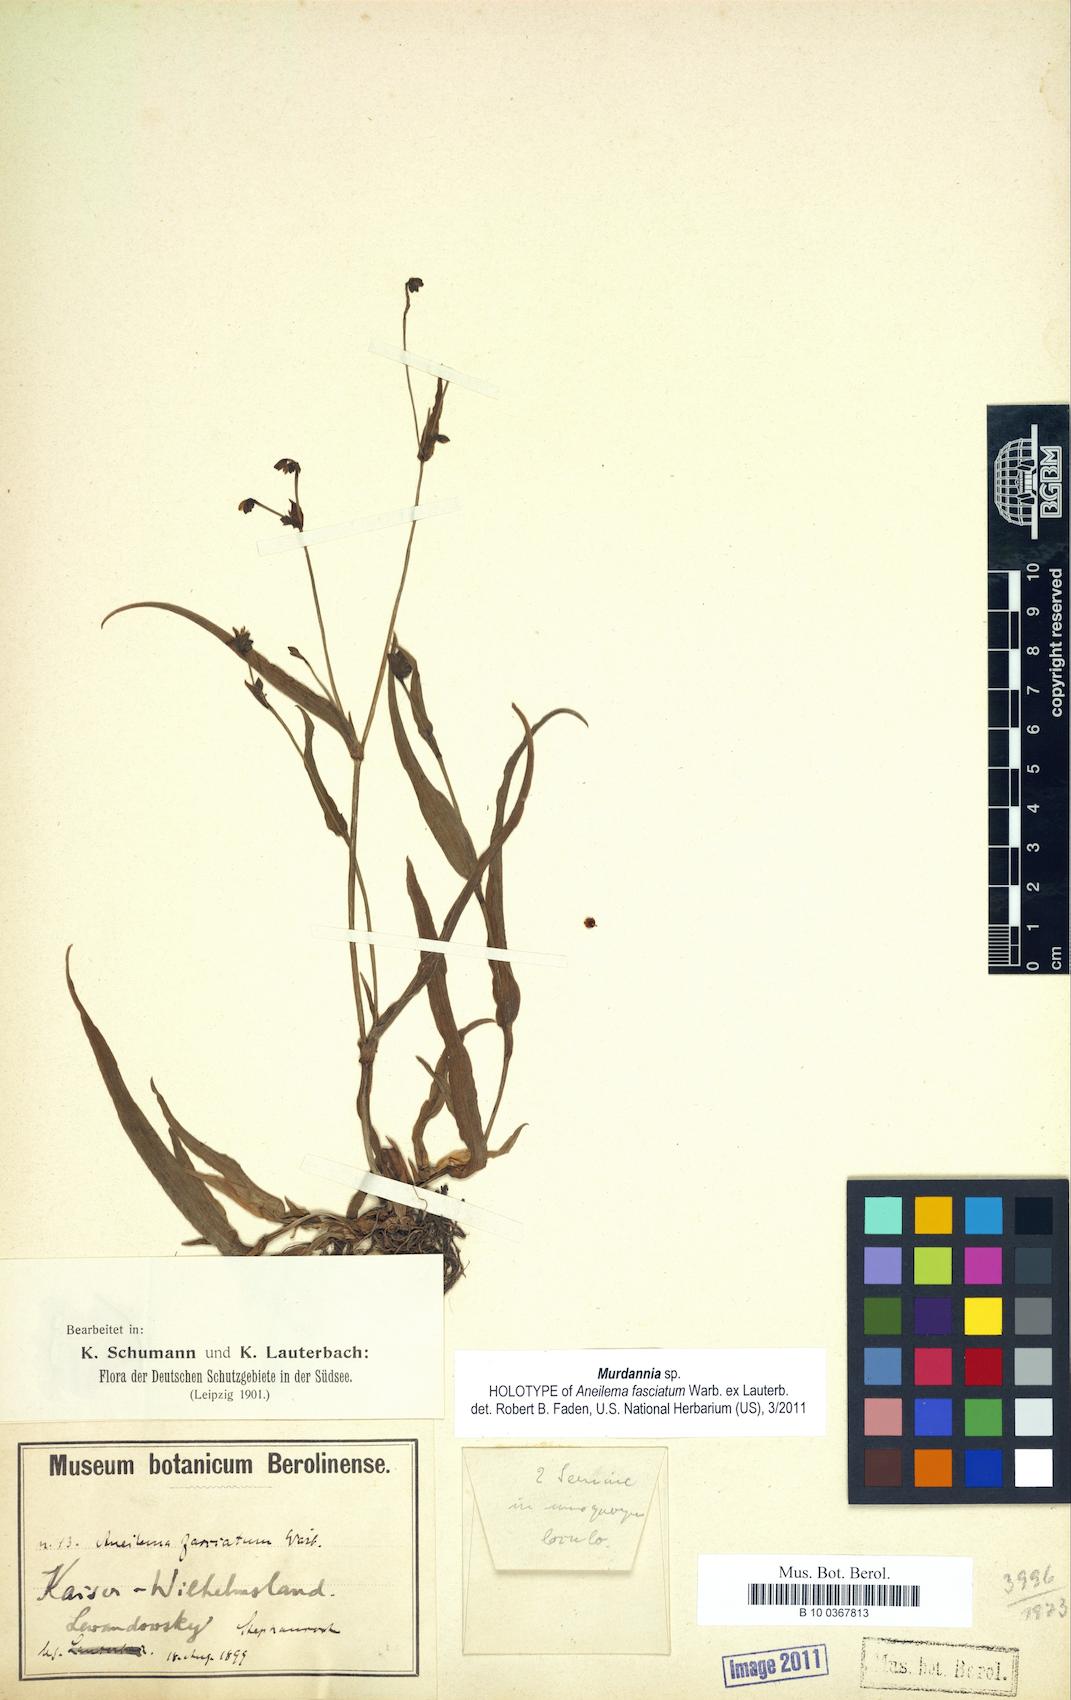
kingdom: Plantae
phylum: Tracheophyta
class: Liliopsida
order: Commelinales
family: Commelinaceae
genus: Murdannia
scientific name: Murdannia
